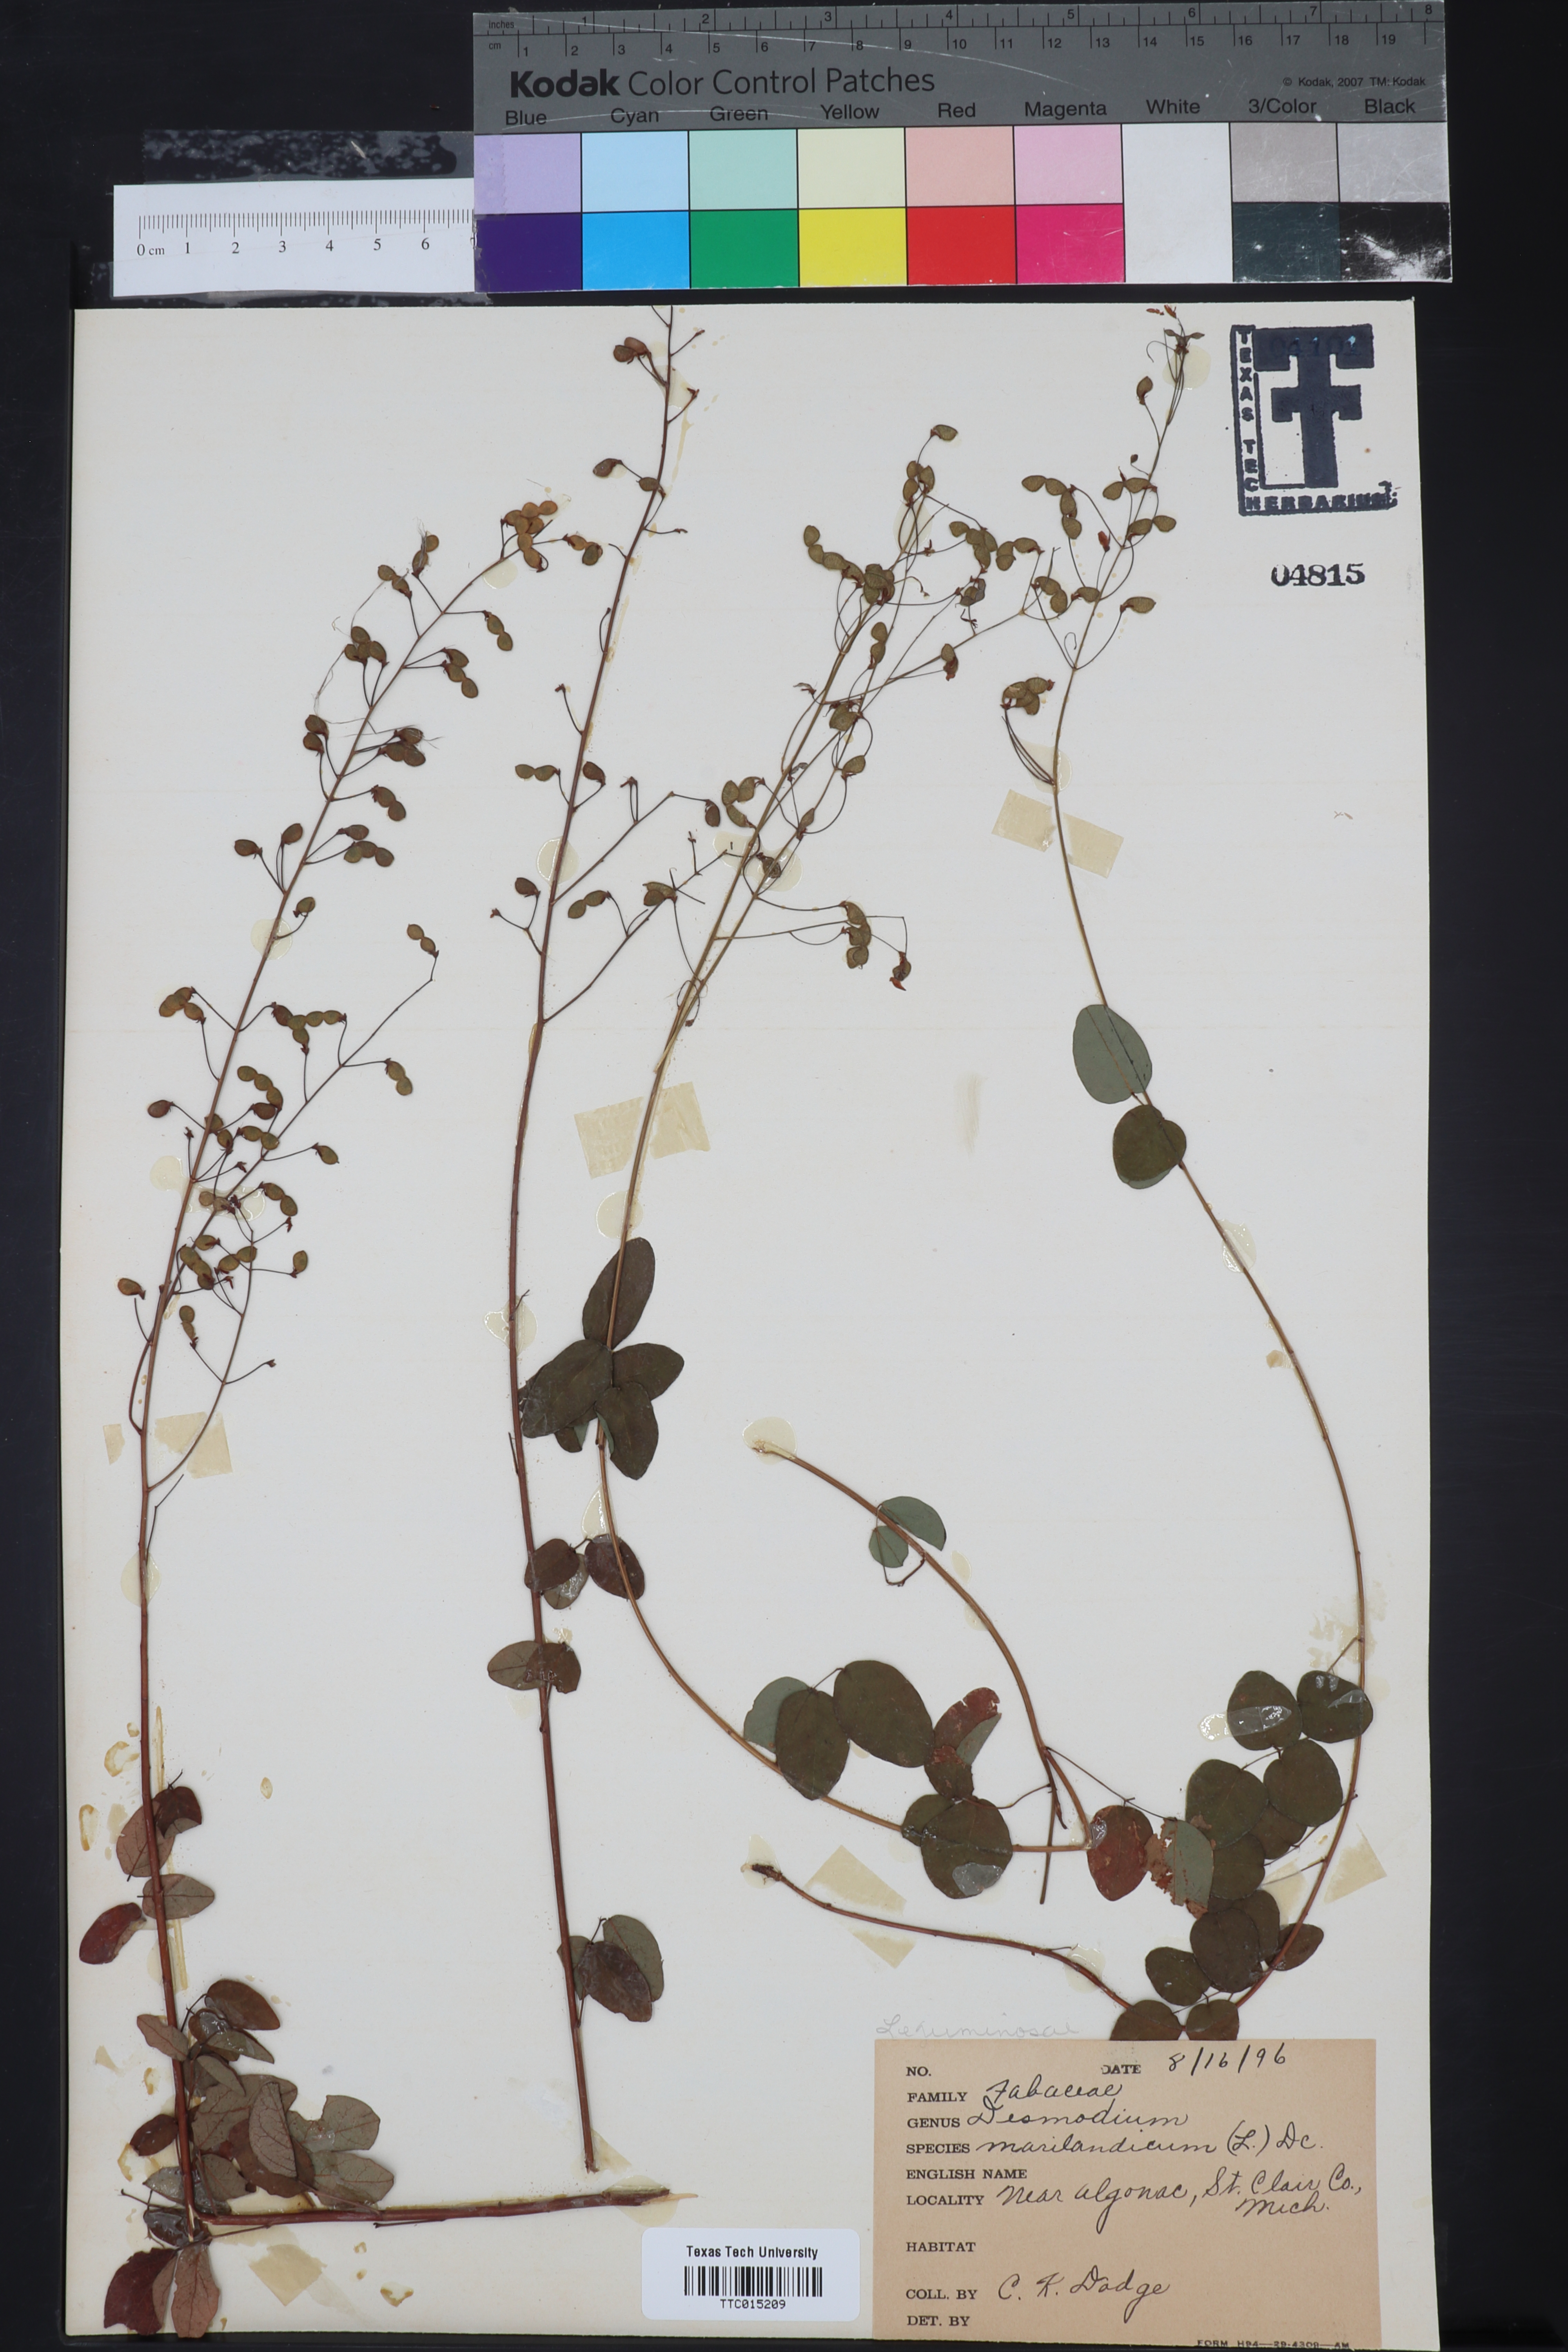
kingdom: Plantae
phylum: Tracheophyta
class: Magnoliopsida
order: Fabales
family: Fabaceae
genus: Desmodium
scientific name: Desmodium marilandicum
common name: Maryland tick-trefoil
